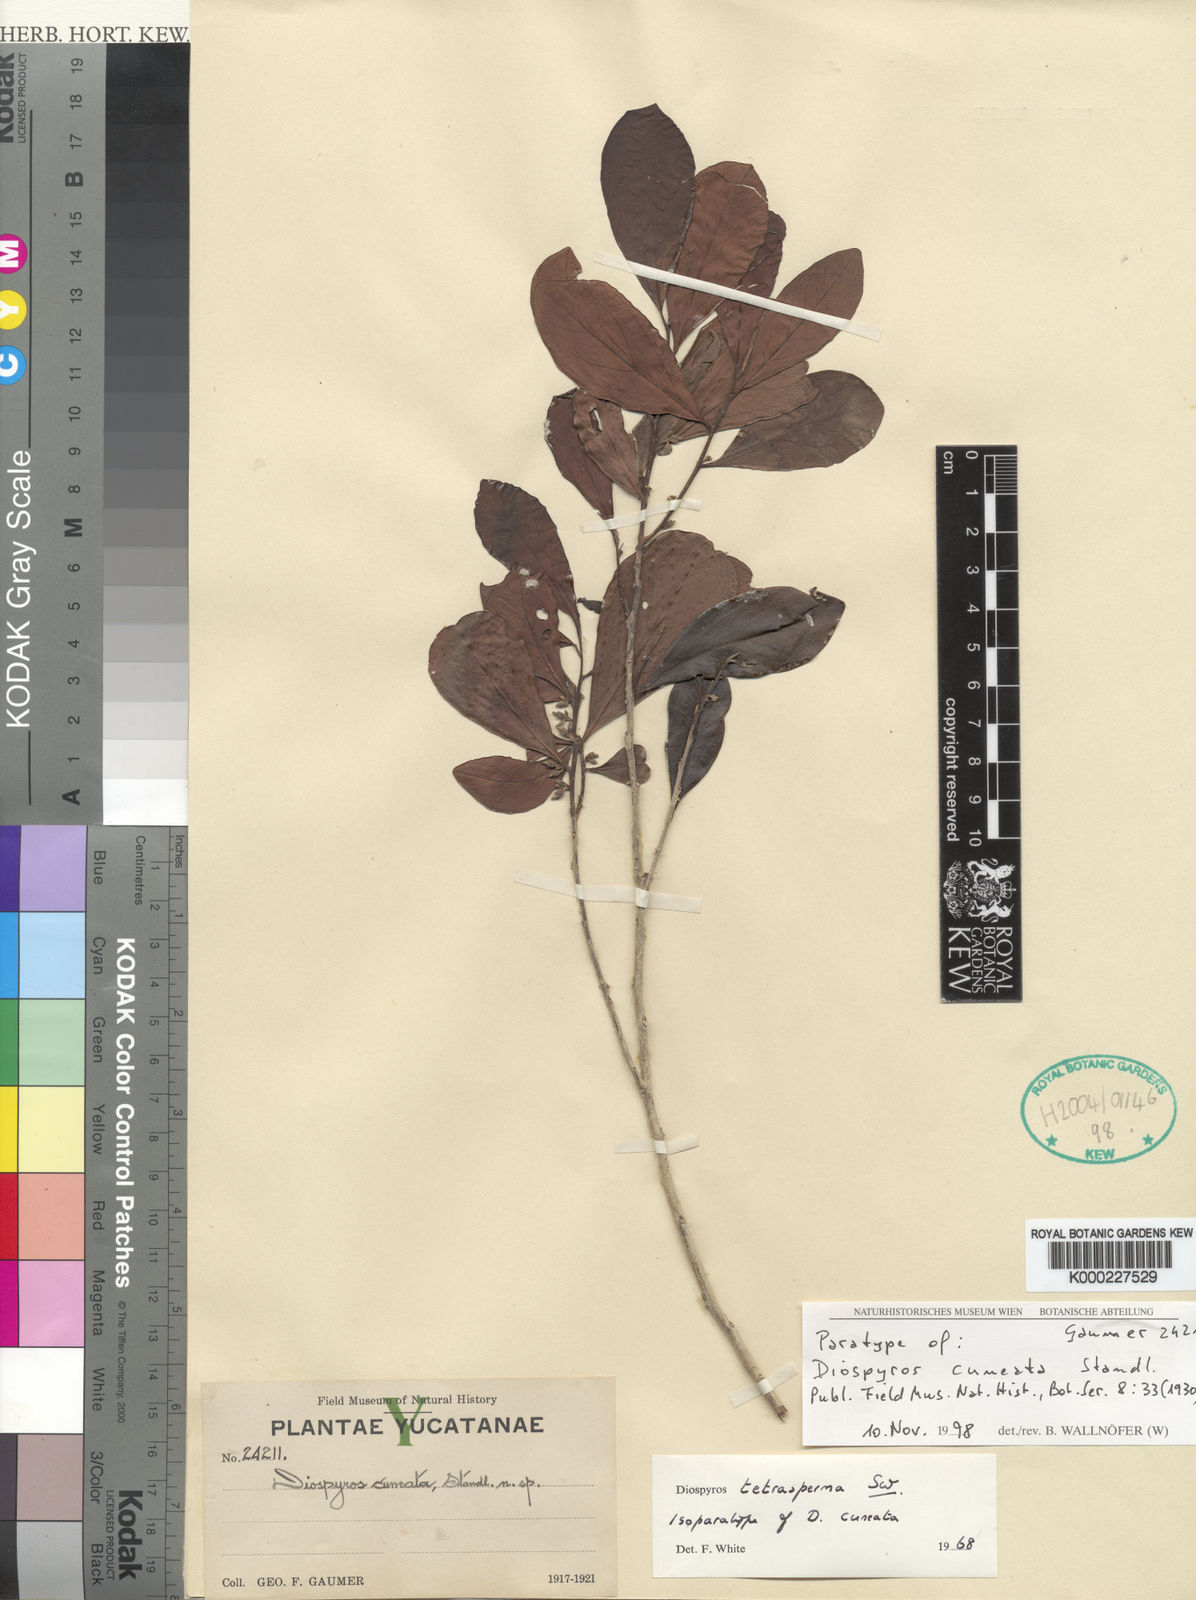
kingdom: Plantae
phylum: Tracheophyta
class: Magnoliopsida
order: Ericales
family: Ebenaceae
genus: Diospyros
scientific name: Diospyros tetrasperma
